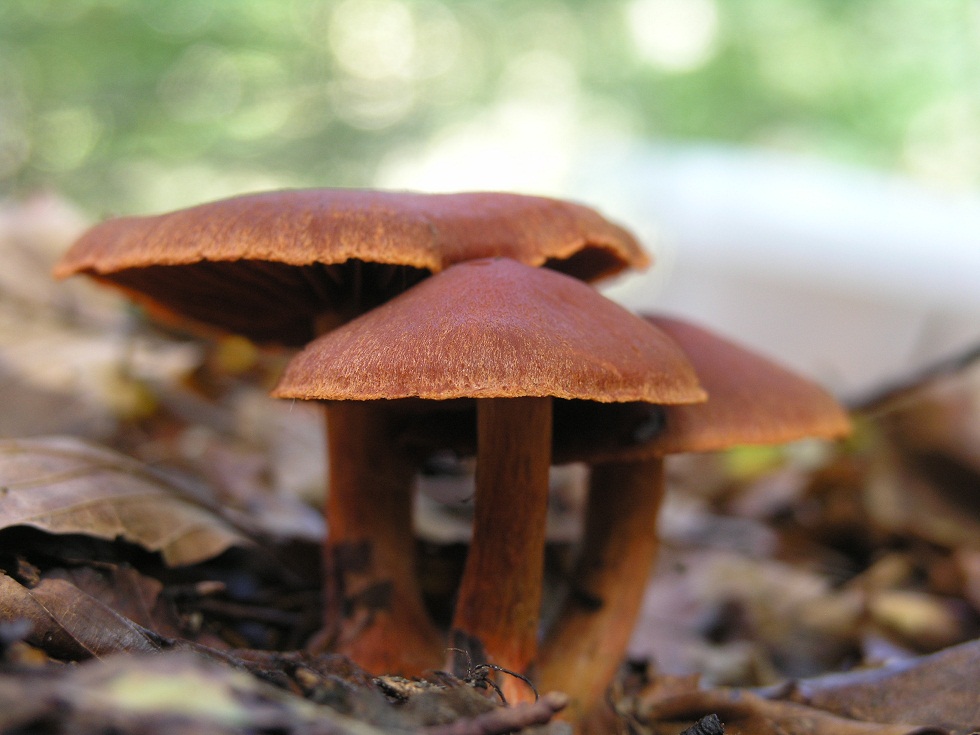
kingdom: Fungi
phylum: Basidiomycota
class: Agaricomycetes
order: Agaricales
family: Cortinariaceae
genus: Cortinarius
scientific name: Cortinarius cinnabarinus
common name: cinnober-slørhat
